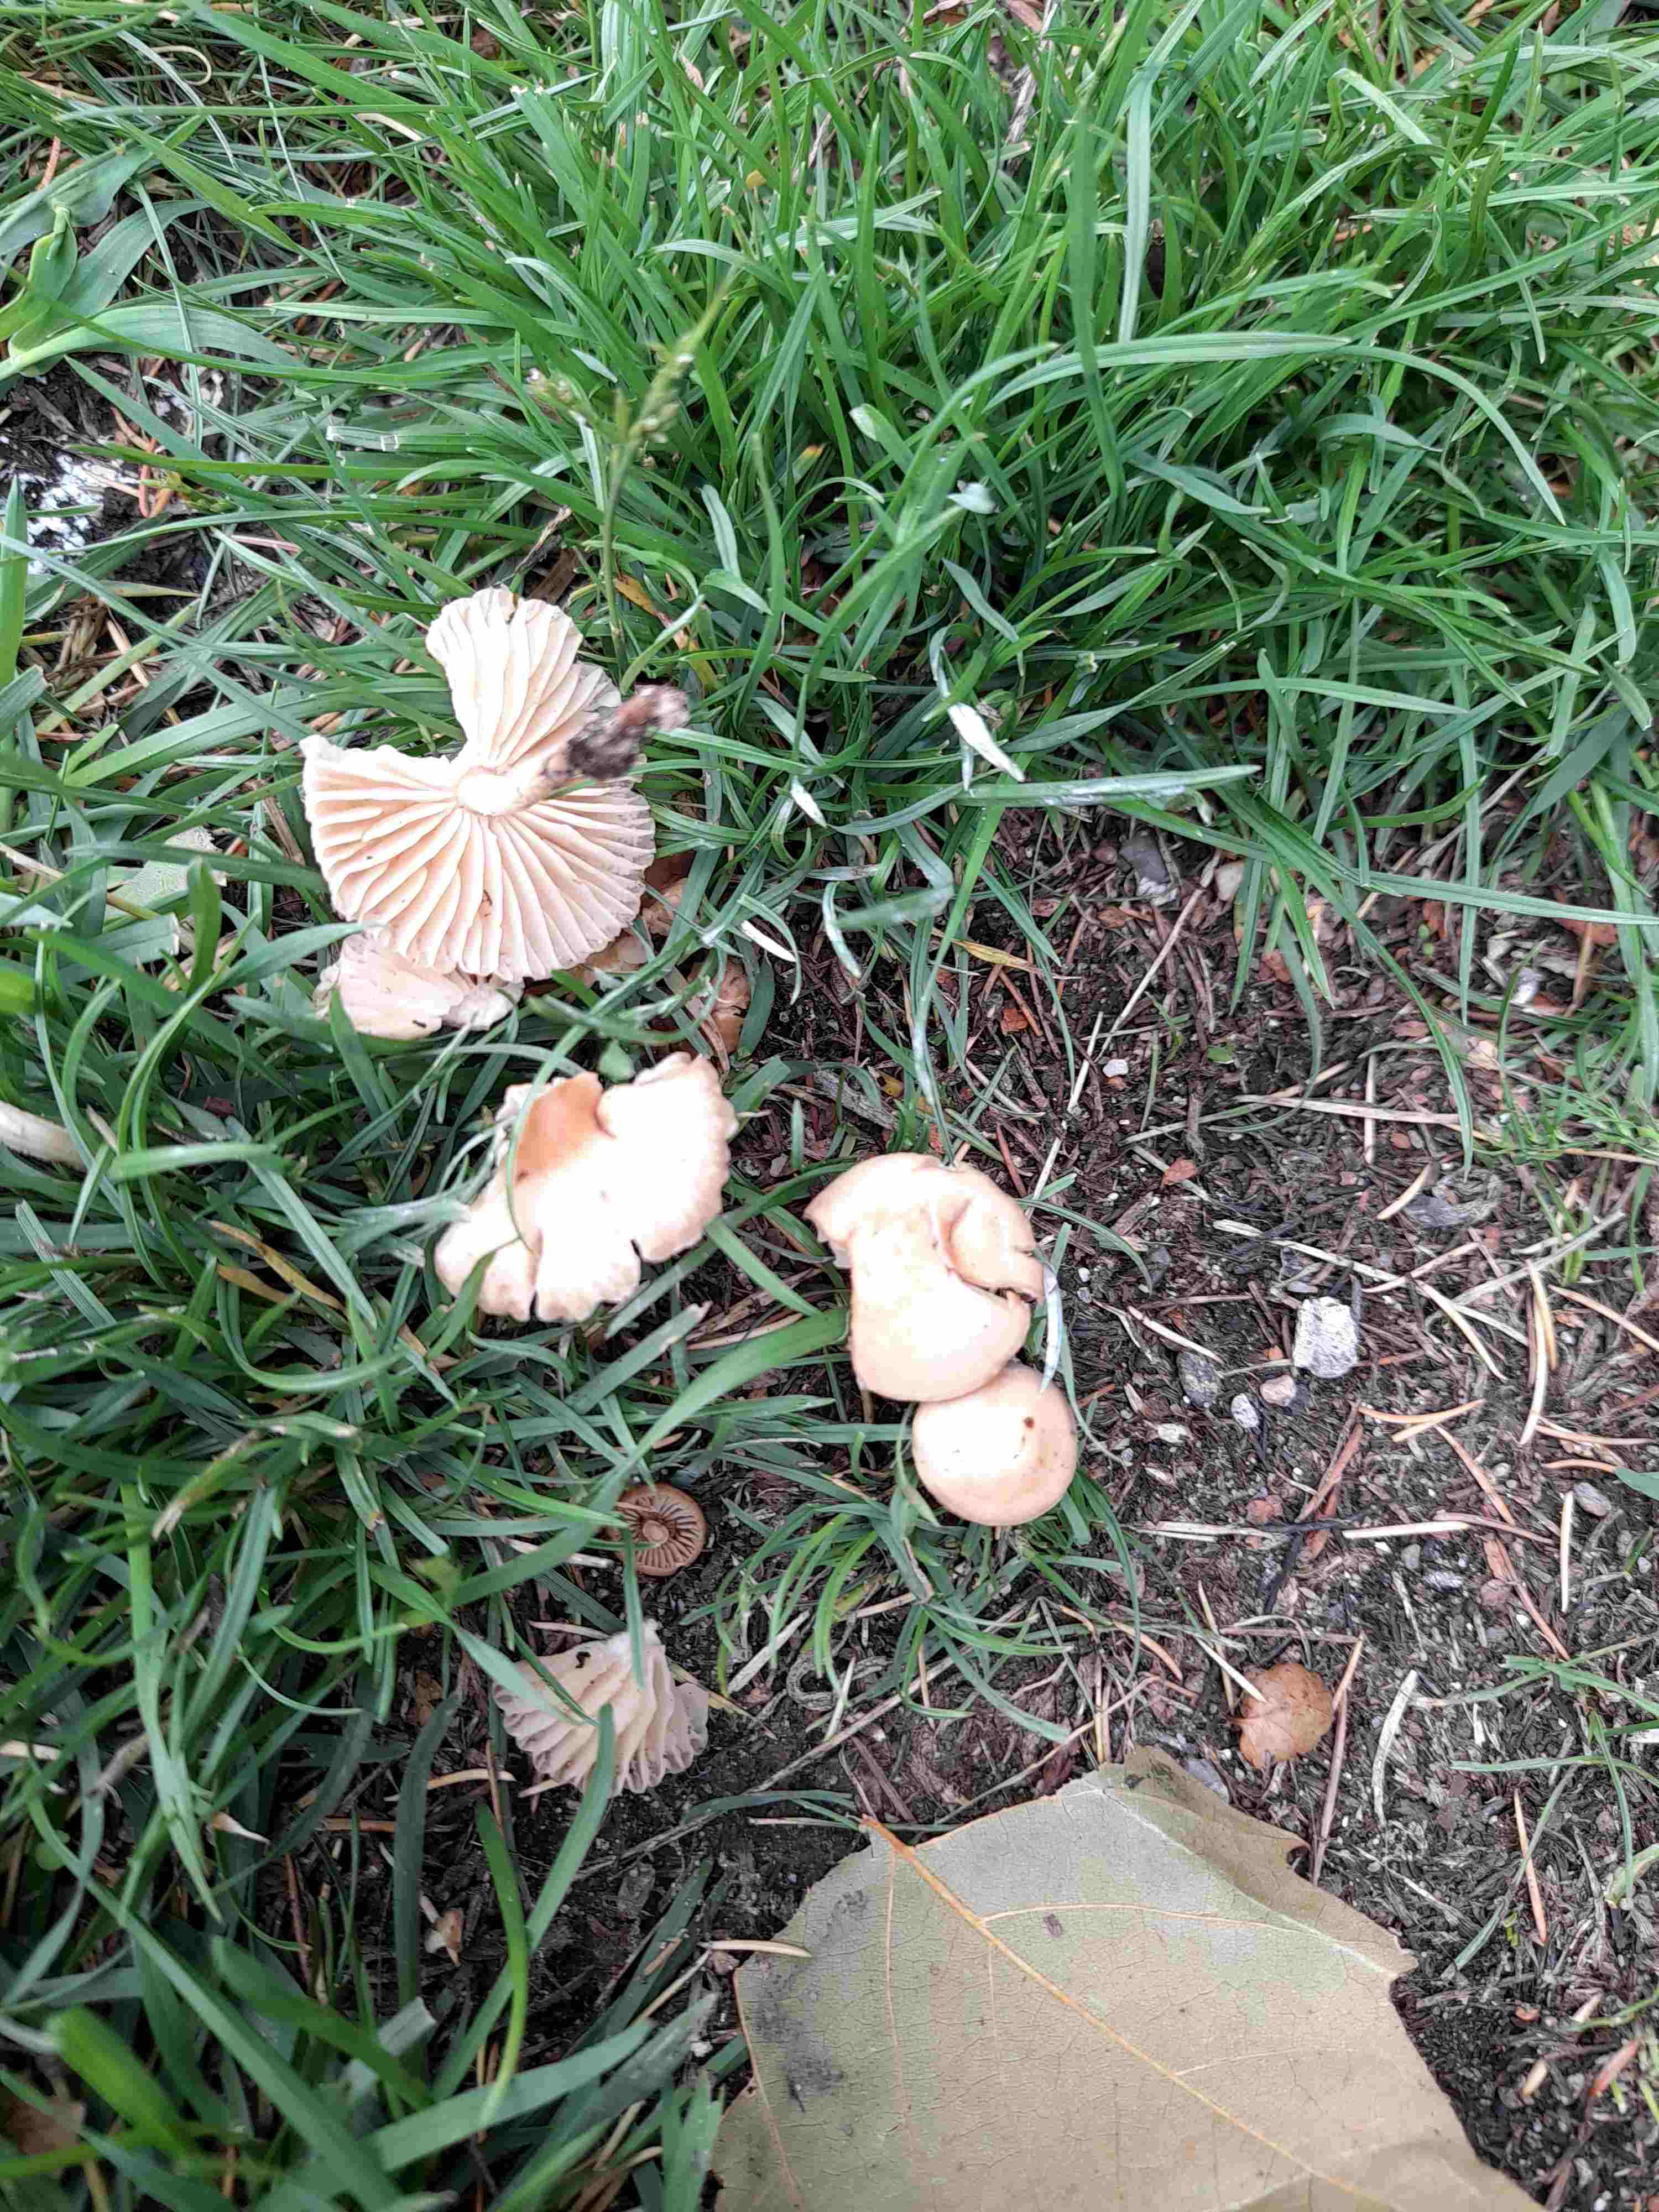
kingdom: Fungi
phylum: Basidiomycota
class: Agaricomycetes
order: Agaricales
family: Marasmiaceae
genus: Marasmius
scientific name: Marasmius oreades
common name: elledans-bruskhat
